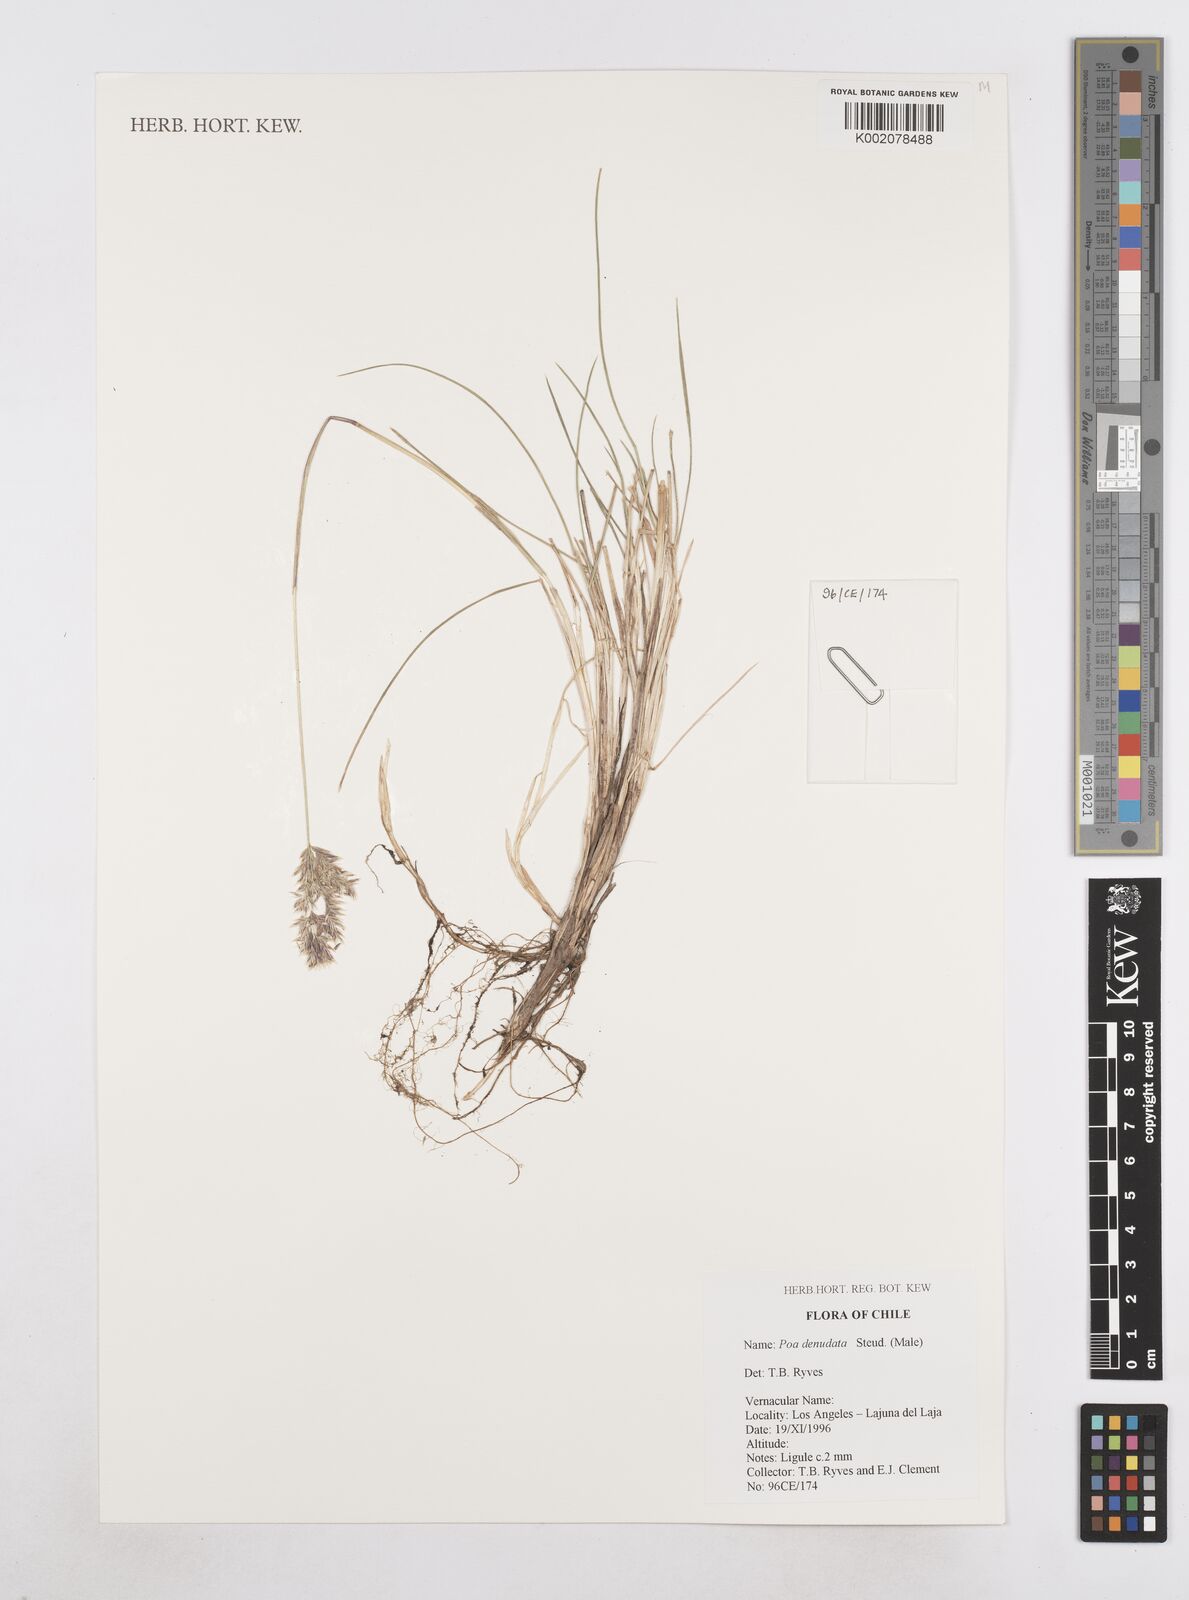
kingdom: Plantae
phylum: Tracheophyta
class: Liliopsida
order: Poales
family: Poaceae
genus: Poa
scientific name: Poa denudata
